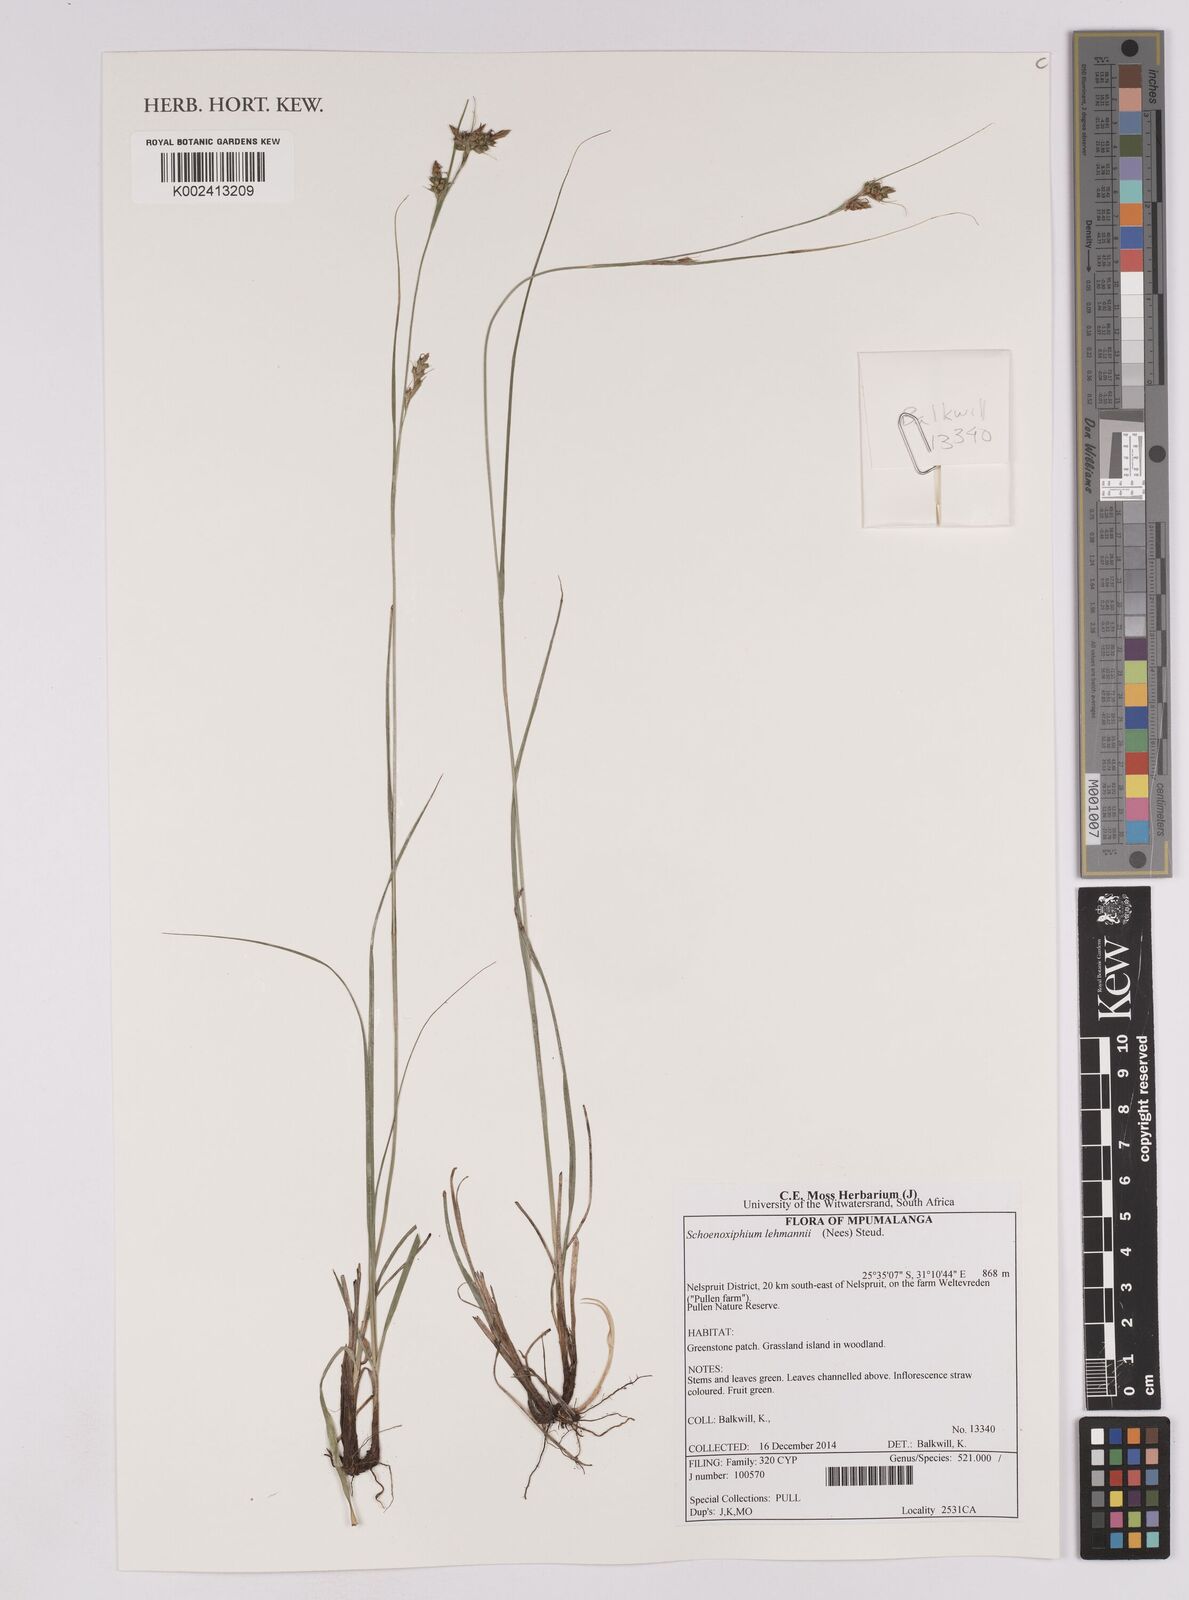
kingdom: Plantae
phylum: Tracheophyta
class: Liliopsida
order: Poales
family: Cyperaceae
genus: Carex
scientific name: Carex uhligii
